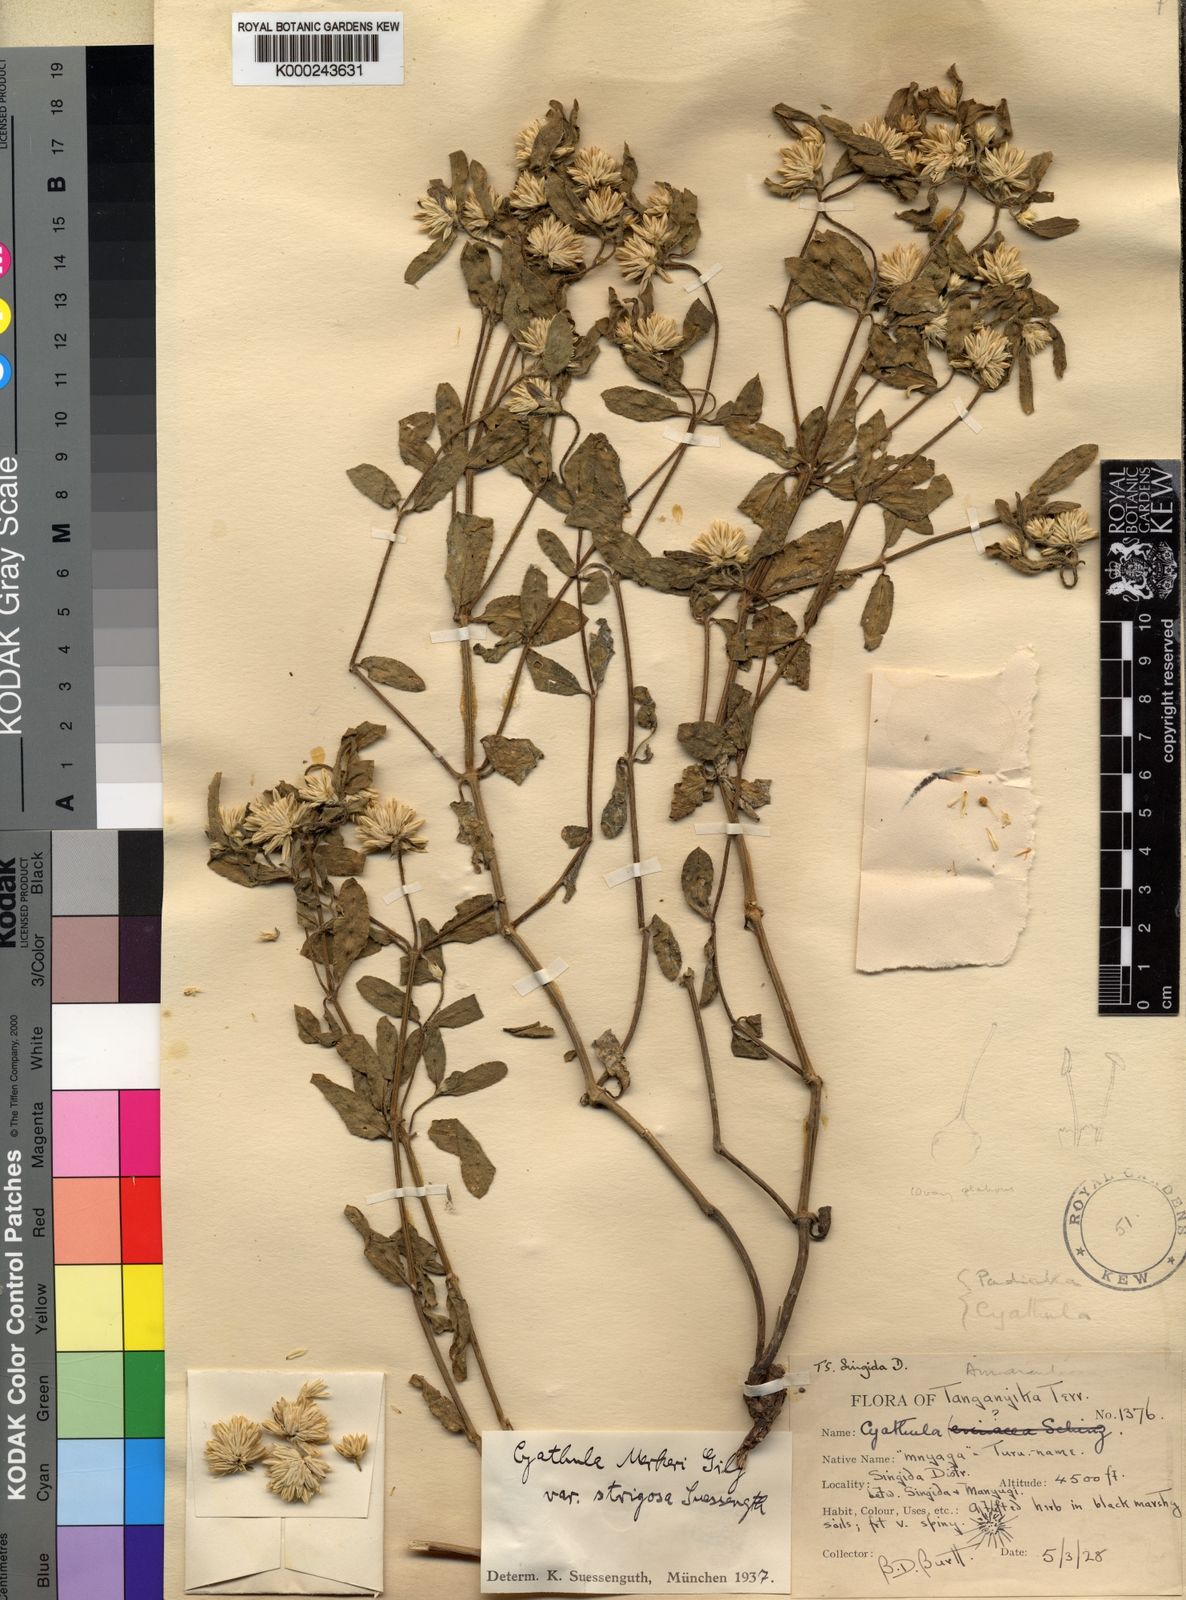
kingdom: Plantae
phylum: Tracheophyta
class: Magnoliopsida
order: Caryophyllales
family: Amaranthaceae
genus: Cyathula
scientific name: Cyathula lanceolata
